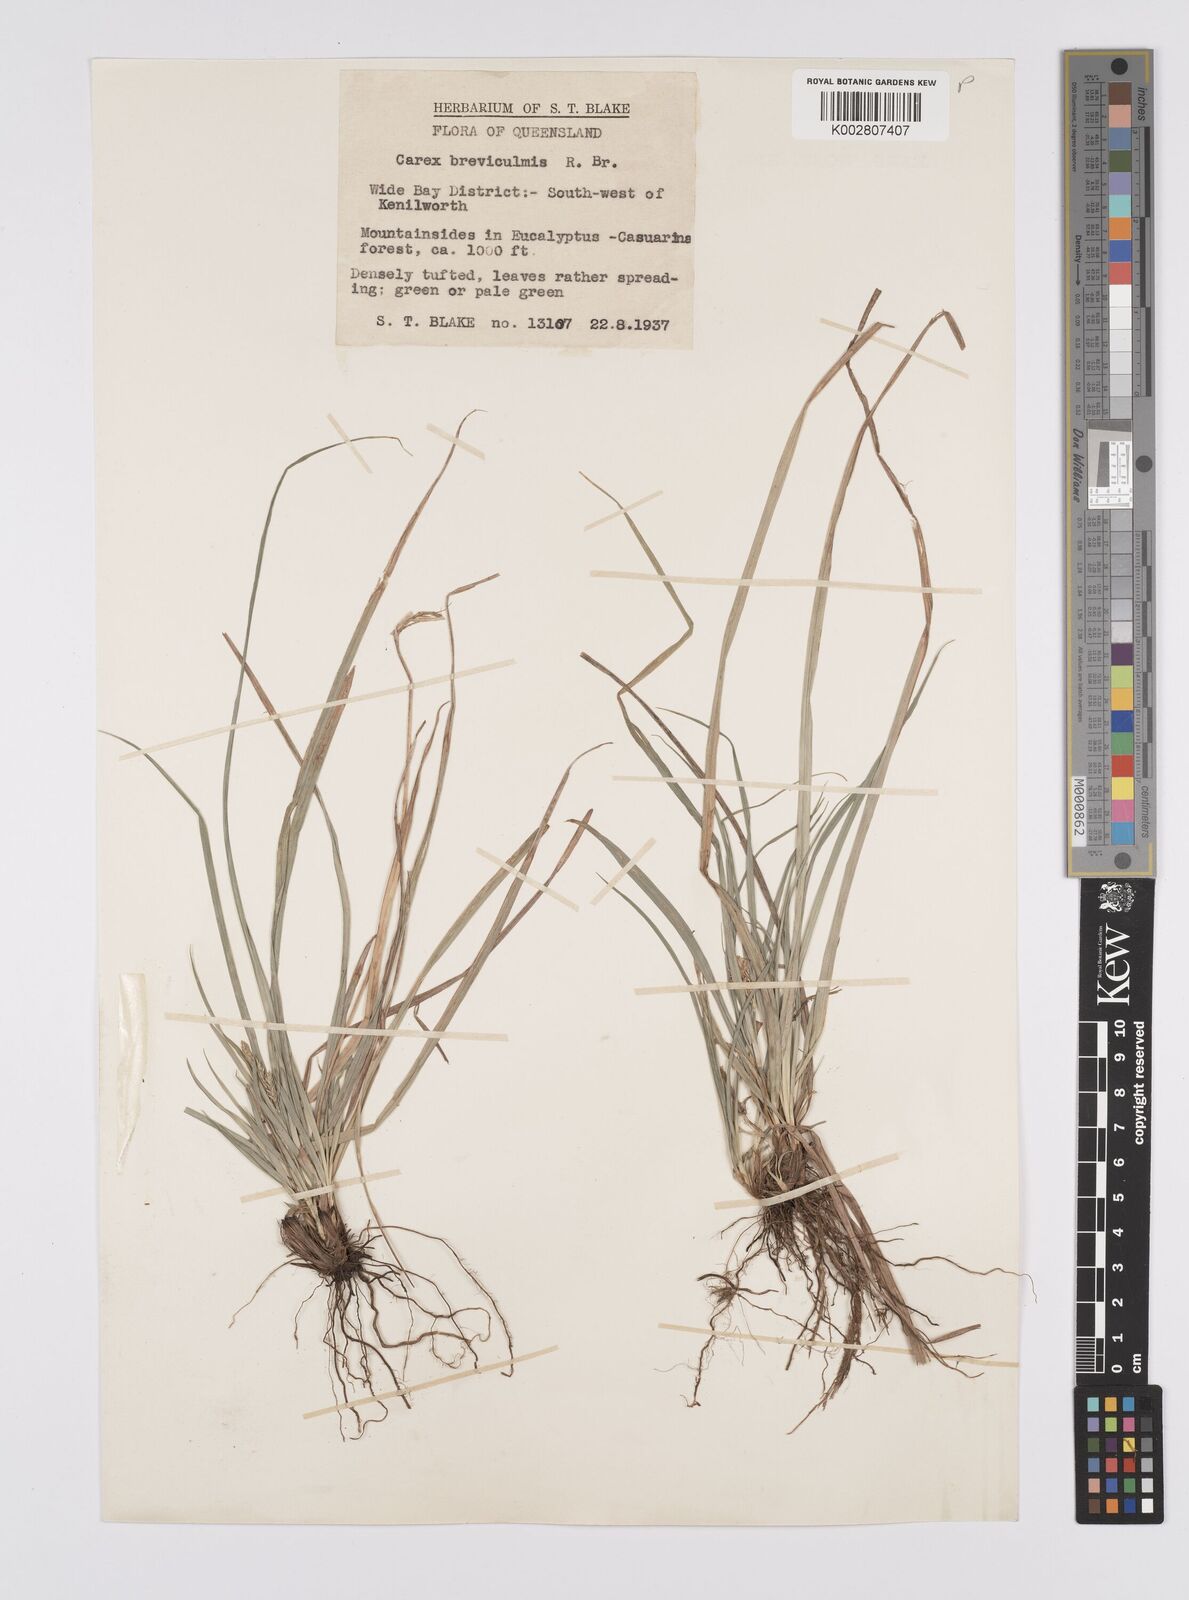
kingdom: Plantae
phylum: Tracheophyta
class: Liliopsida
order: Poales
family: Cyperaceae
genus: Carex
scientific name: Carex breviculmis
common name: Asian shortstem sedge
